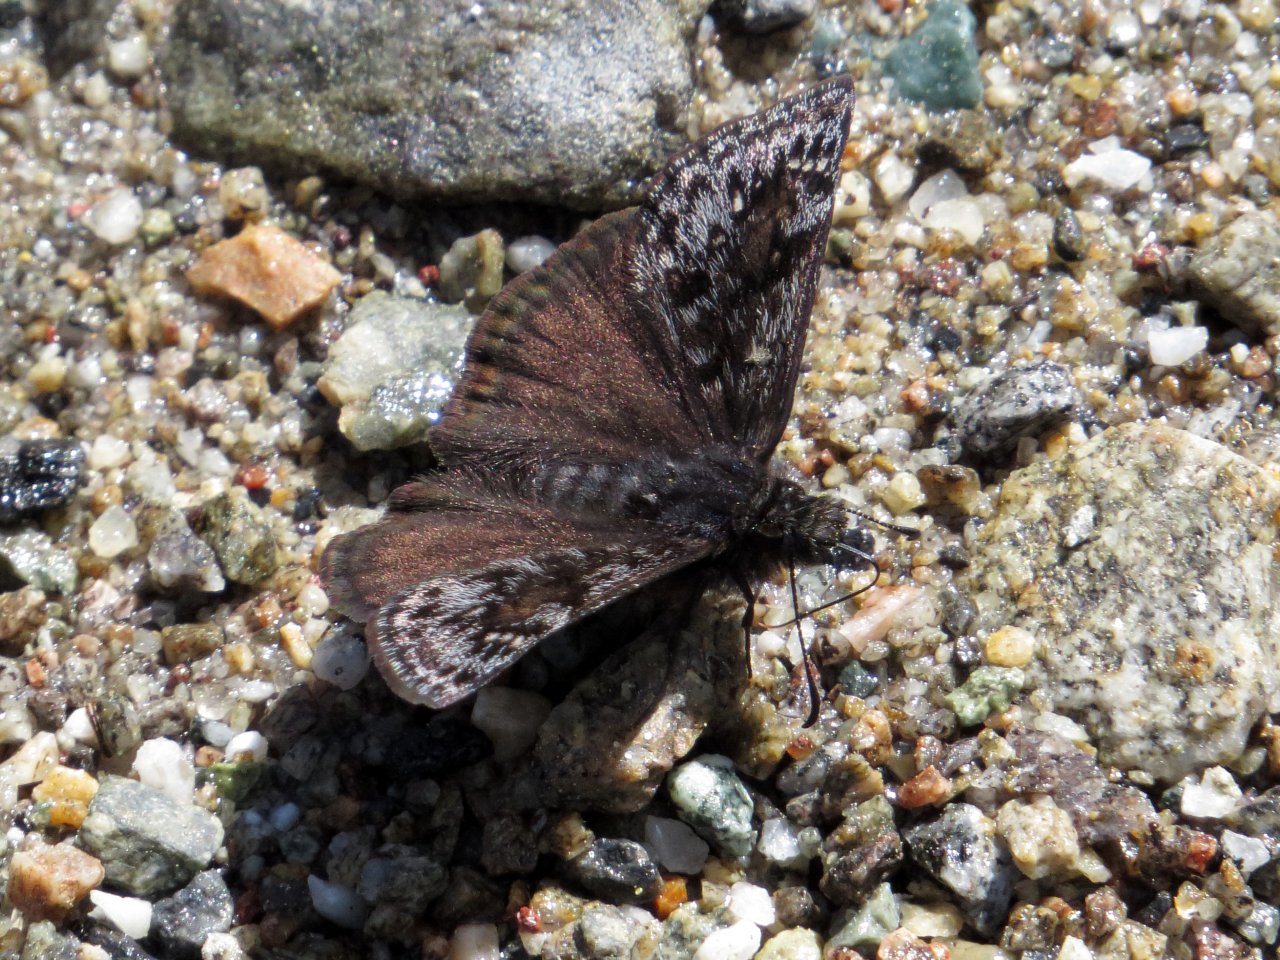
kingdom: Animalia
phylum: Arthropoda
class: Insecta
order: Lepidoptera
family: Hesperiidae
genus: Erynnis
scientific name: Erynnis pacuvius
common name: Pacuvius Duskywing
